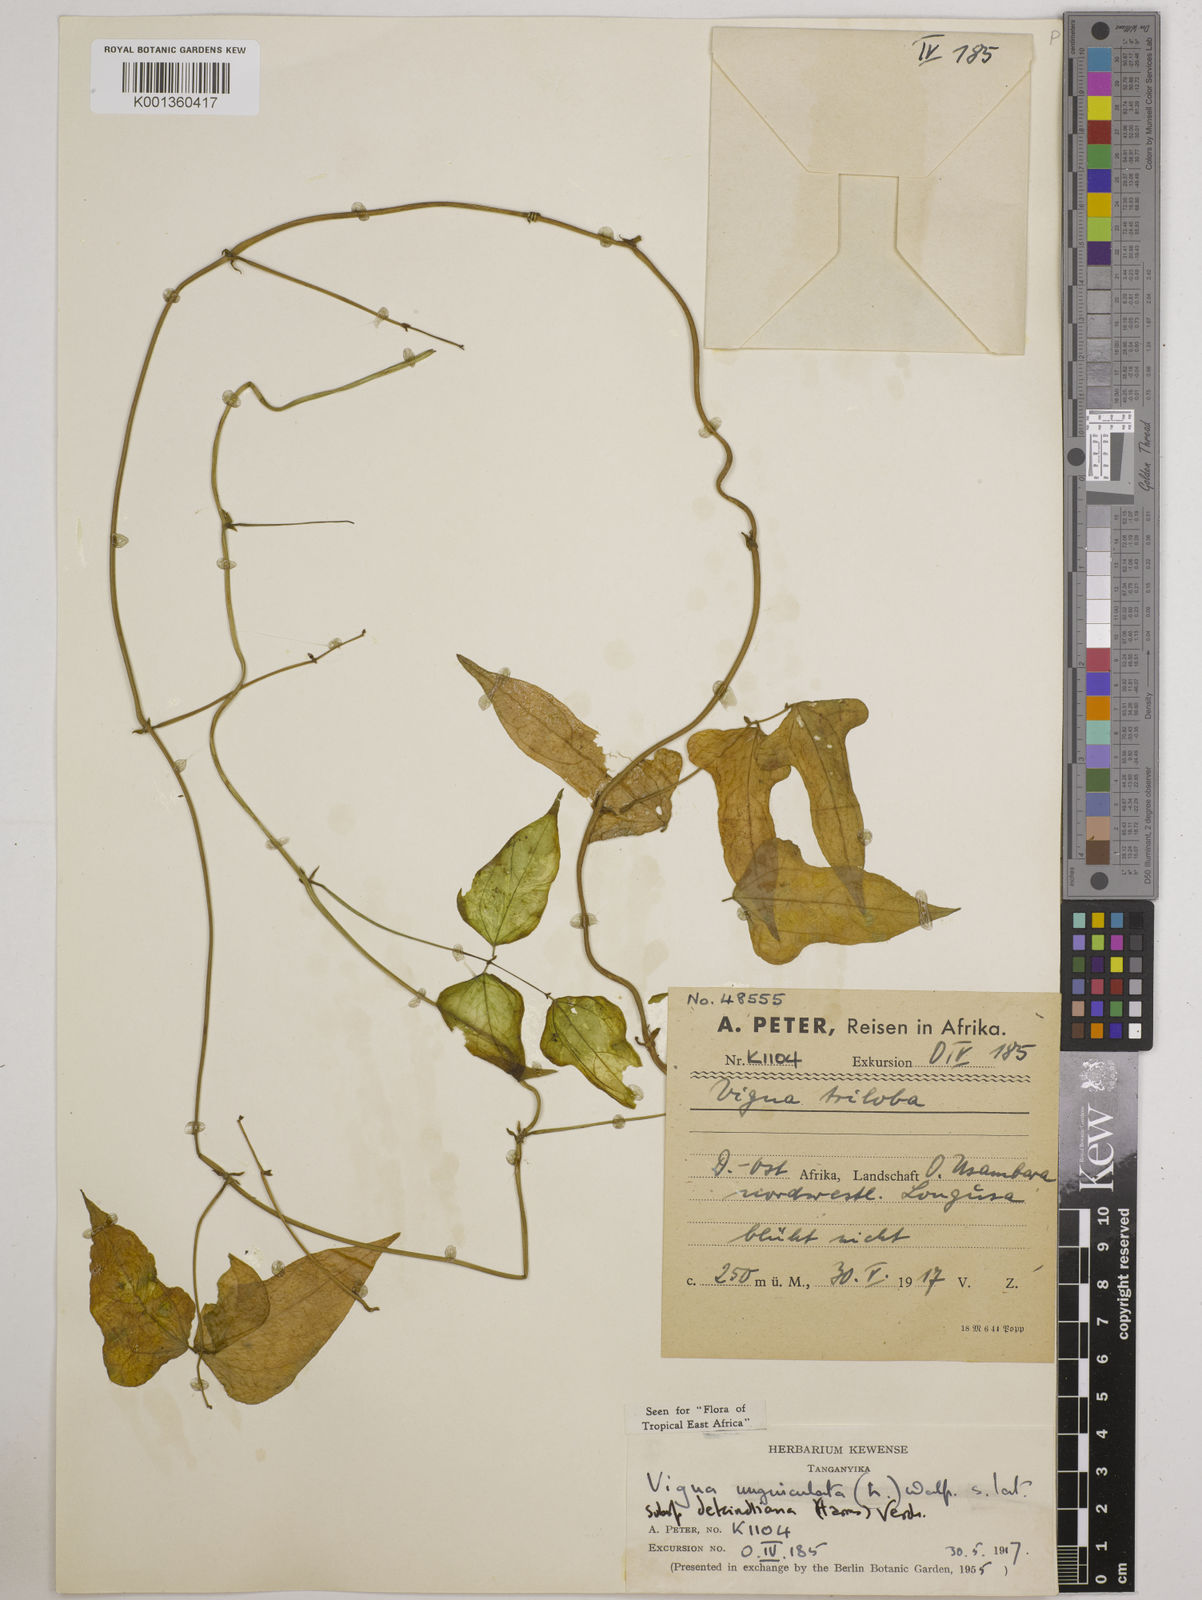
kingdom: Plantae
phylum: Tracheophyta
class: Magnoliopsida
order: Fabales
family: Fabaceae
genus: Vigna
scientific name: Vigna
